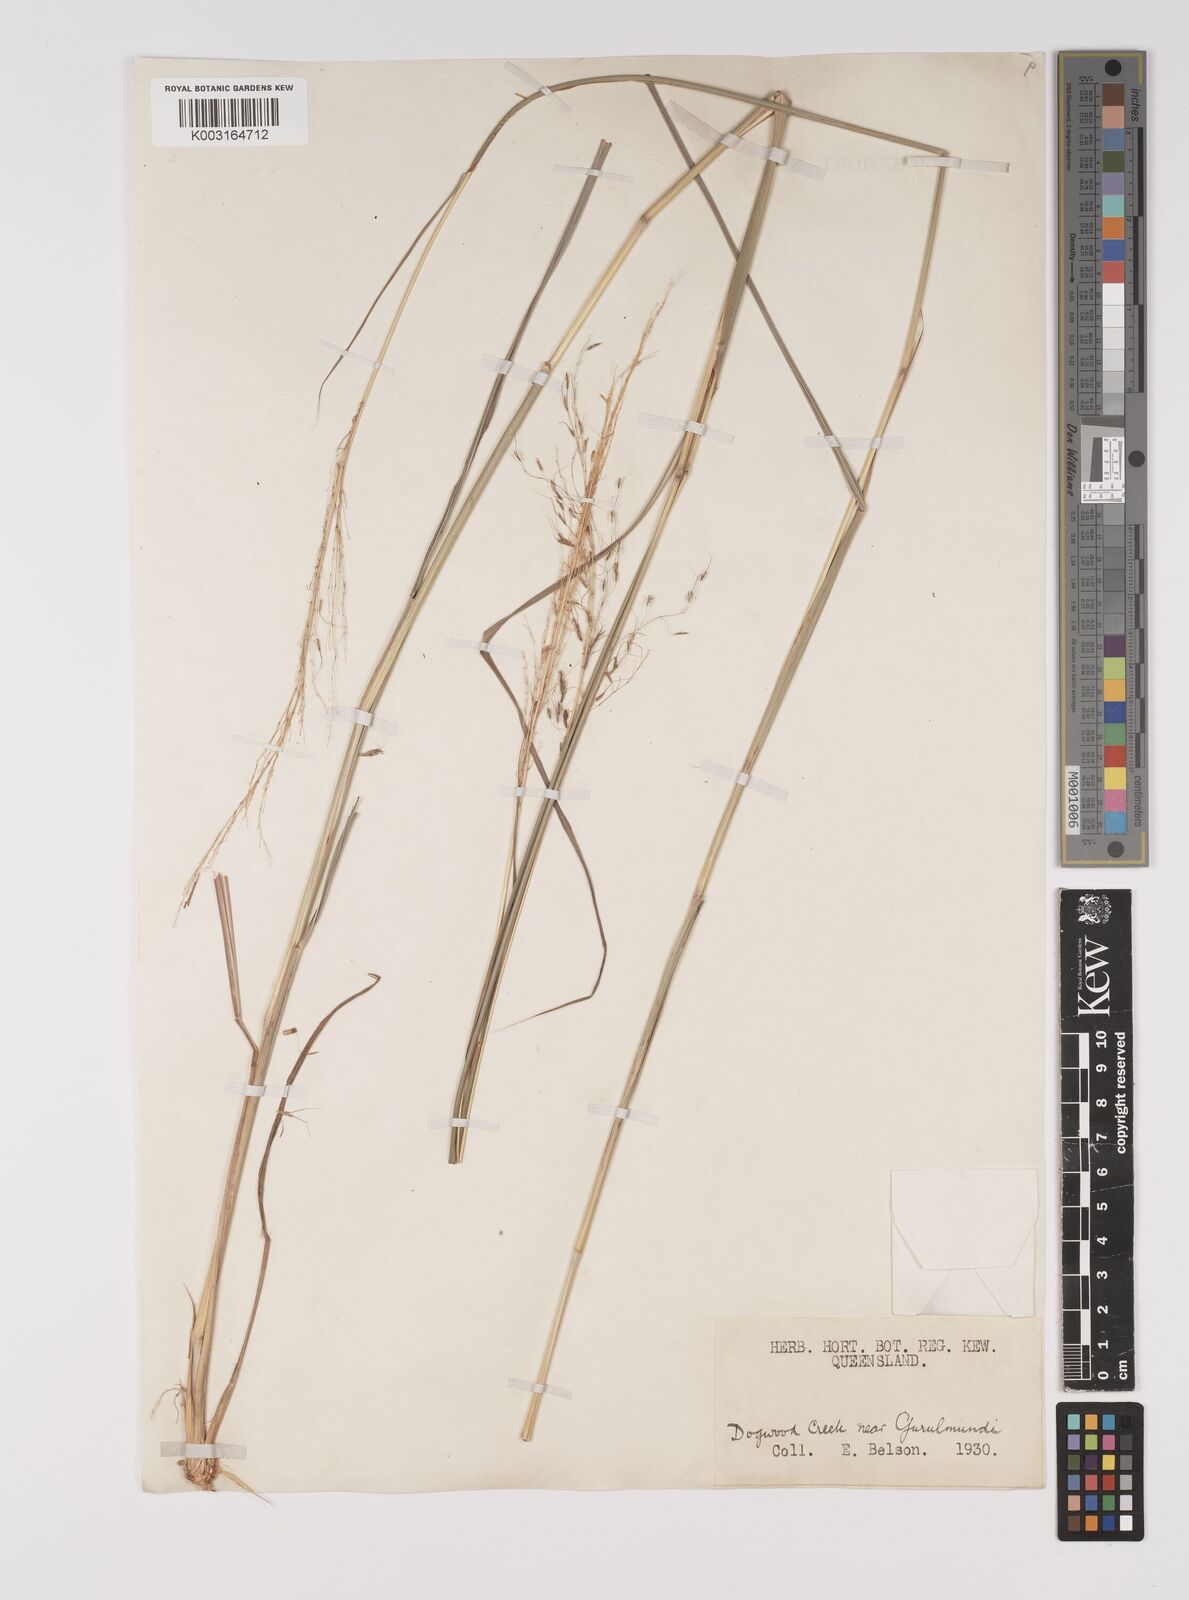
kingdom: Plantae
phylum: Tracheophyta
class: Liliopsida
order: Poales
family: Poaceae
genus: Capillipedium
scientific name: Capillipedium parviflorum
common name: Golden-beard
